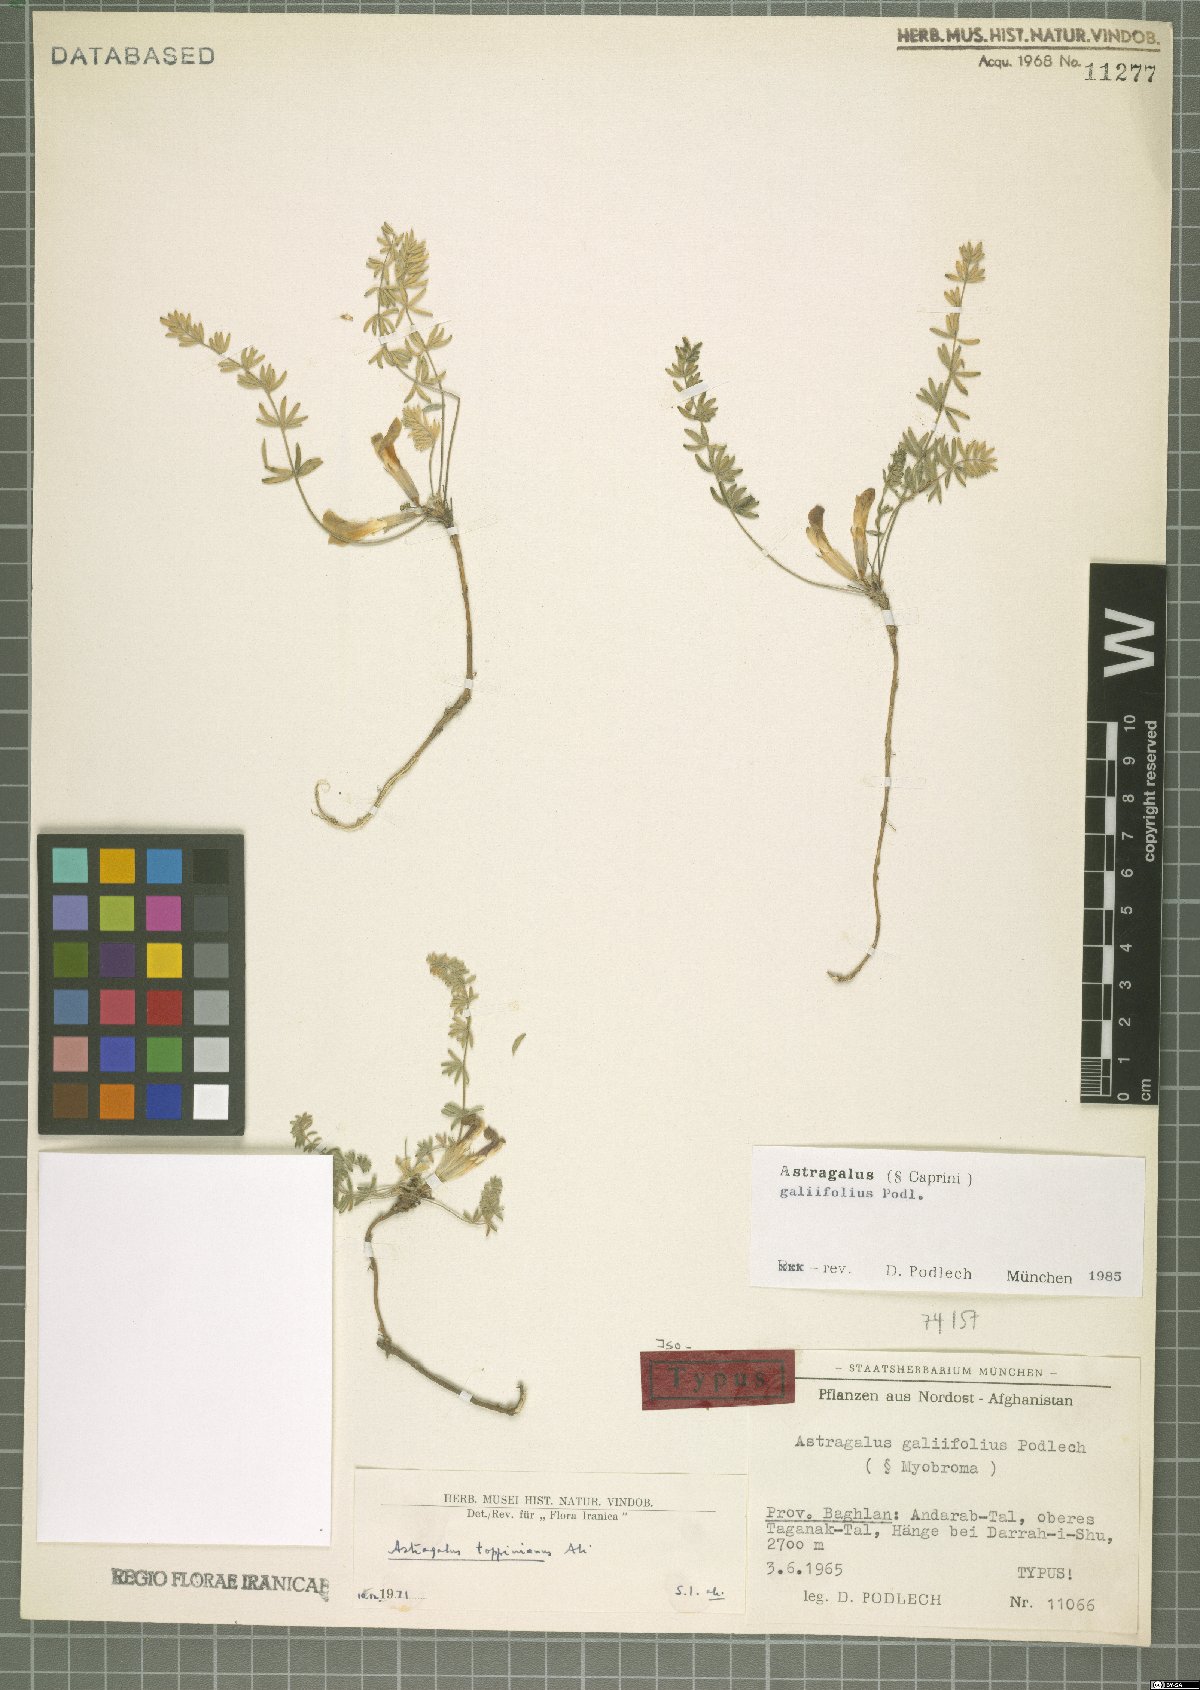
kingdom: Plantae
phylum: Tracheophyta
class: Magnoliopsida
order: Fabales
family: Fabaceae
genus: Astragalus
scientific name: Astragalus galiifolius
